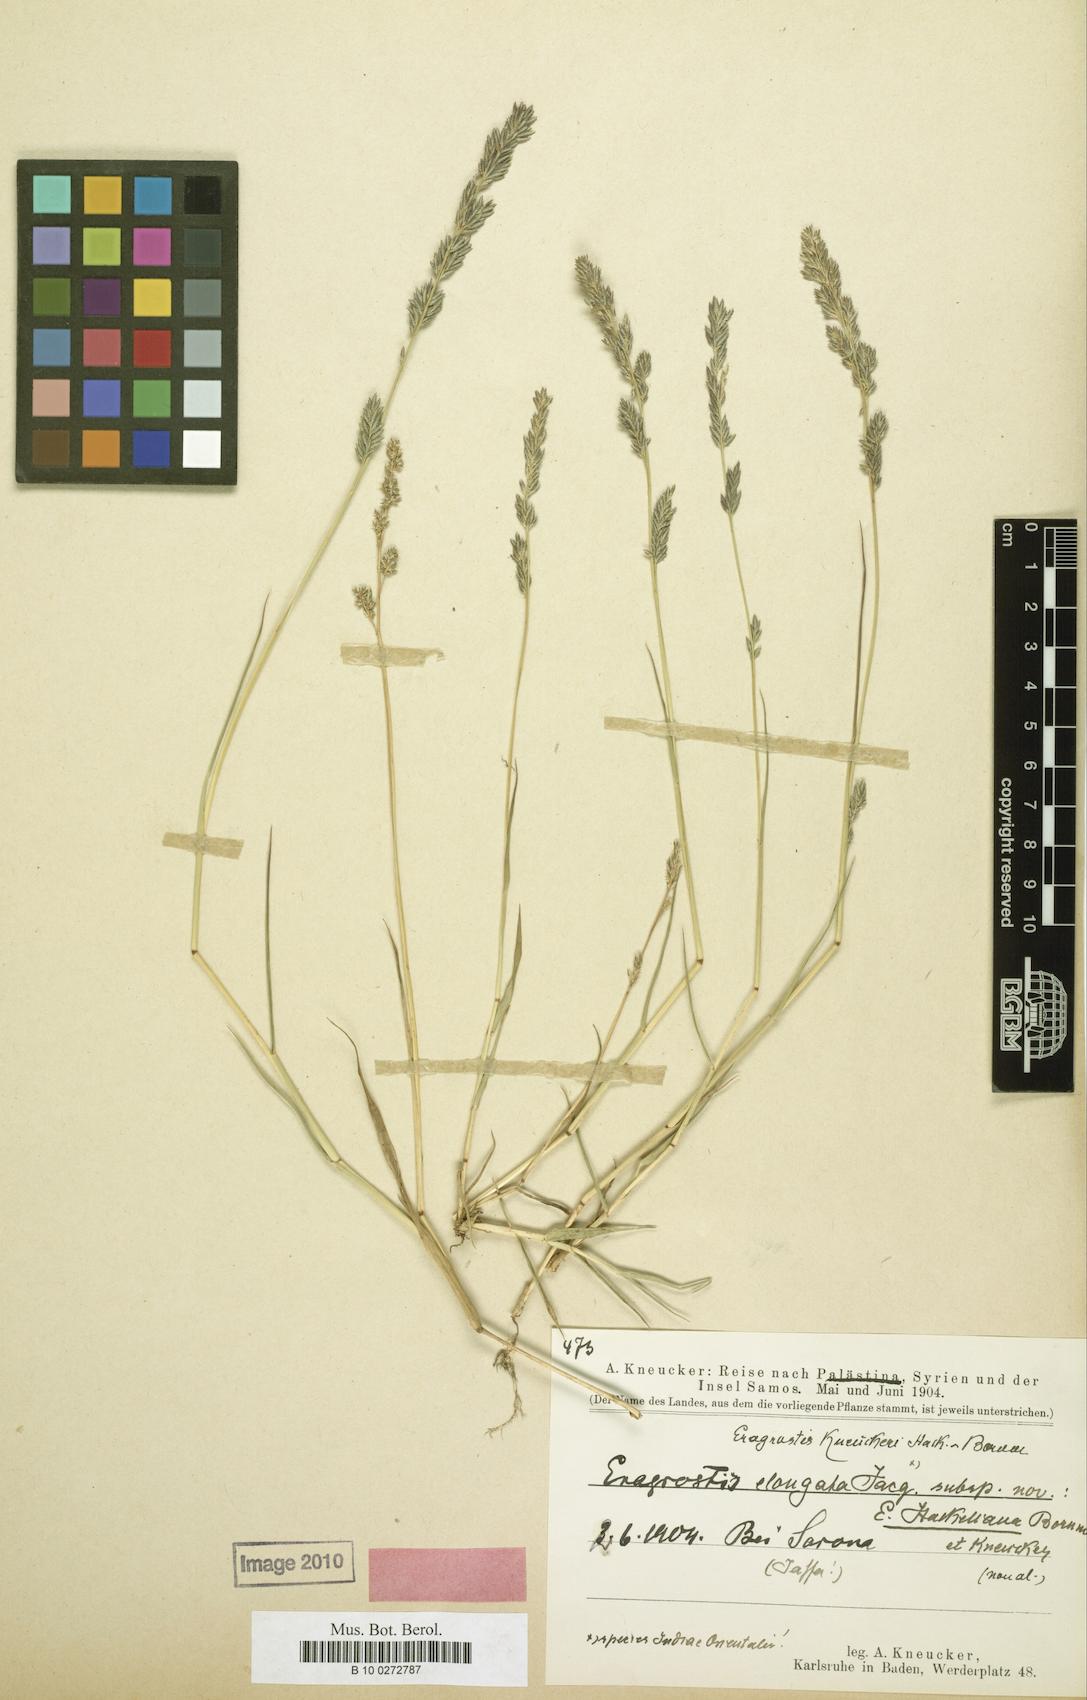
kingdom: Plantae
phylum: Tracheophyta
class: Liliopsida
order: Poales
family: Poaceae
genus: Eragrostis
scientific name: Eragrostis sarmentosa
